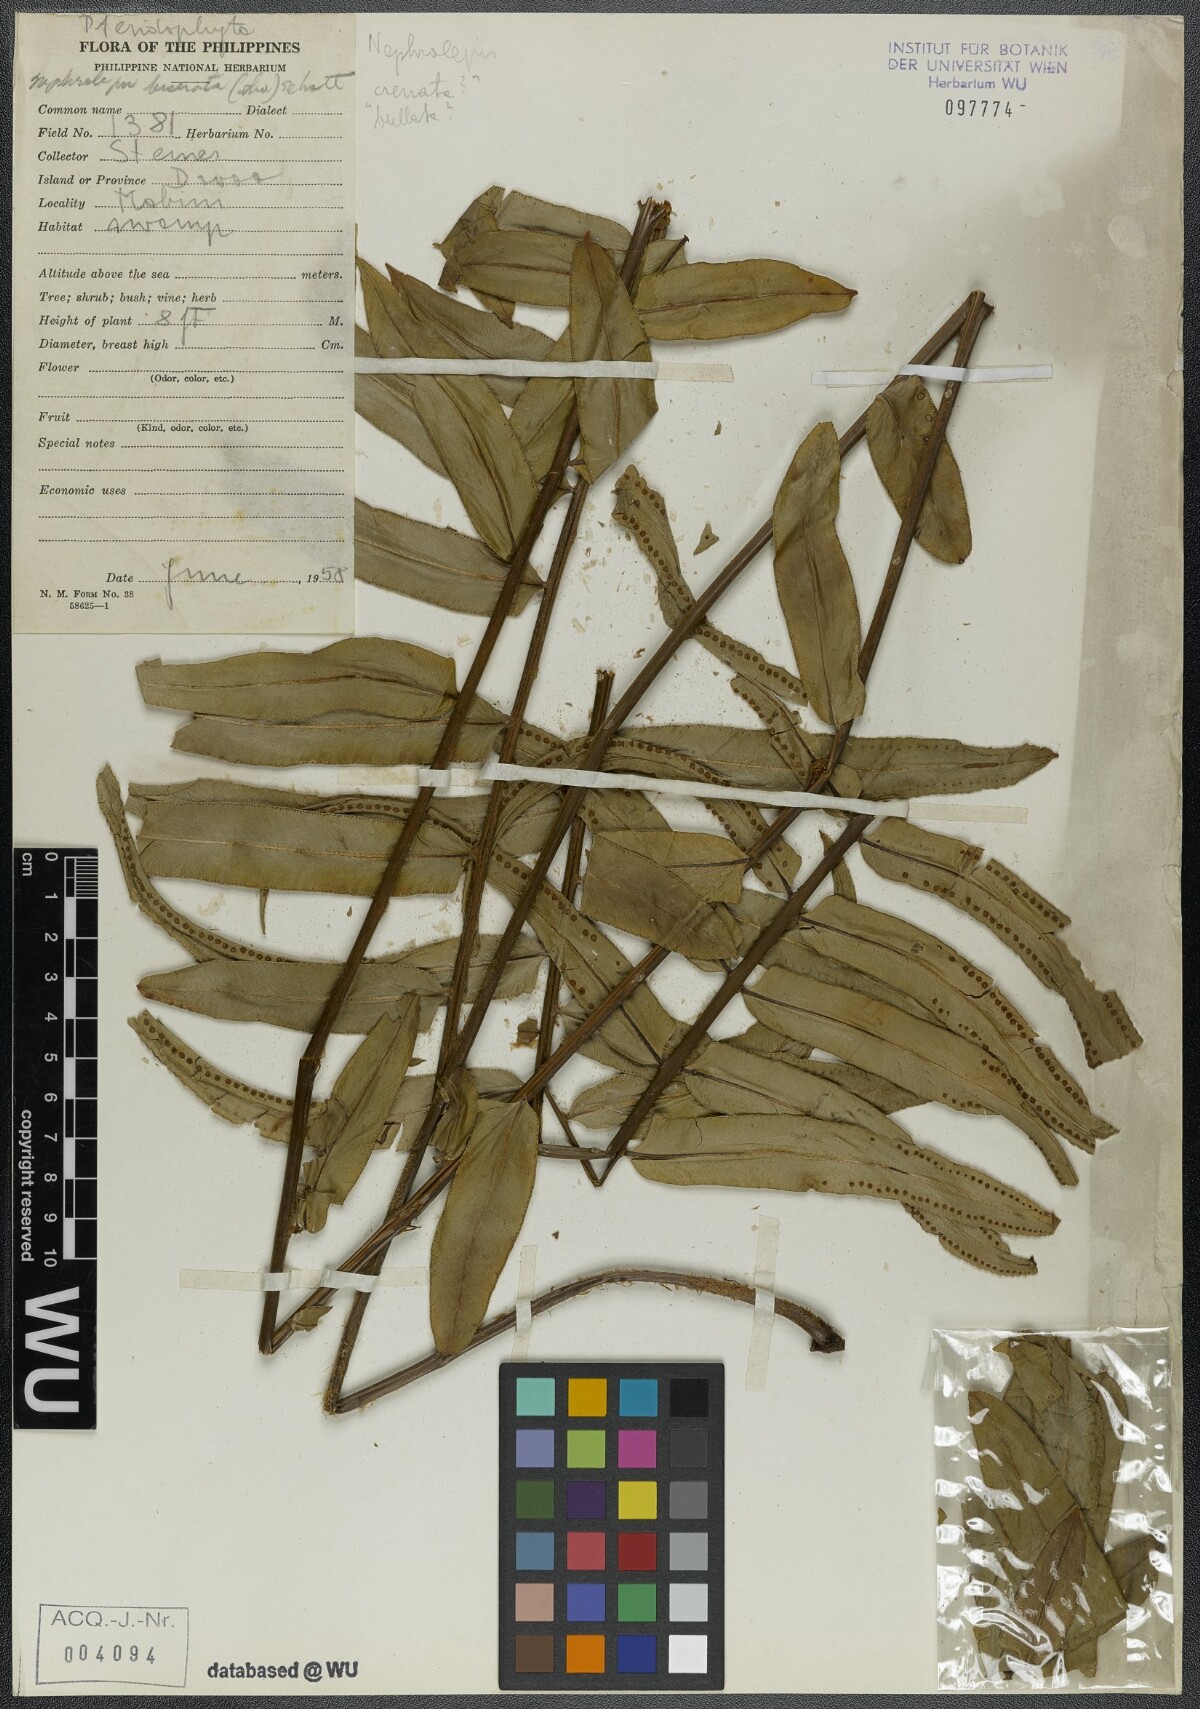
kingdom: Plantae
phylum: Tracheophyta
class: Polypodiopsida
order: Polypodiales
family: Nephrolepidaceae
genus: Nephrolepis
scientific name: Nephrolepis biserrata
